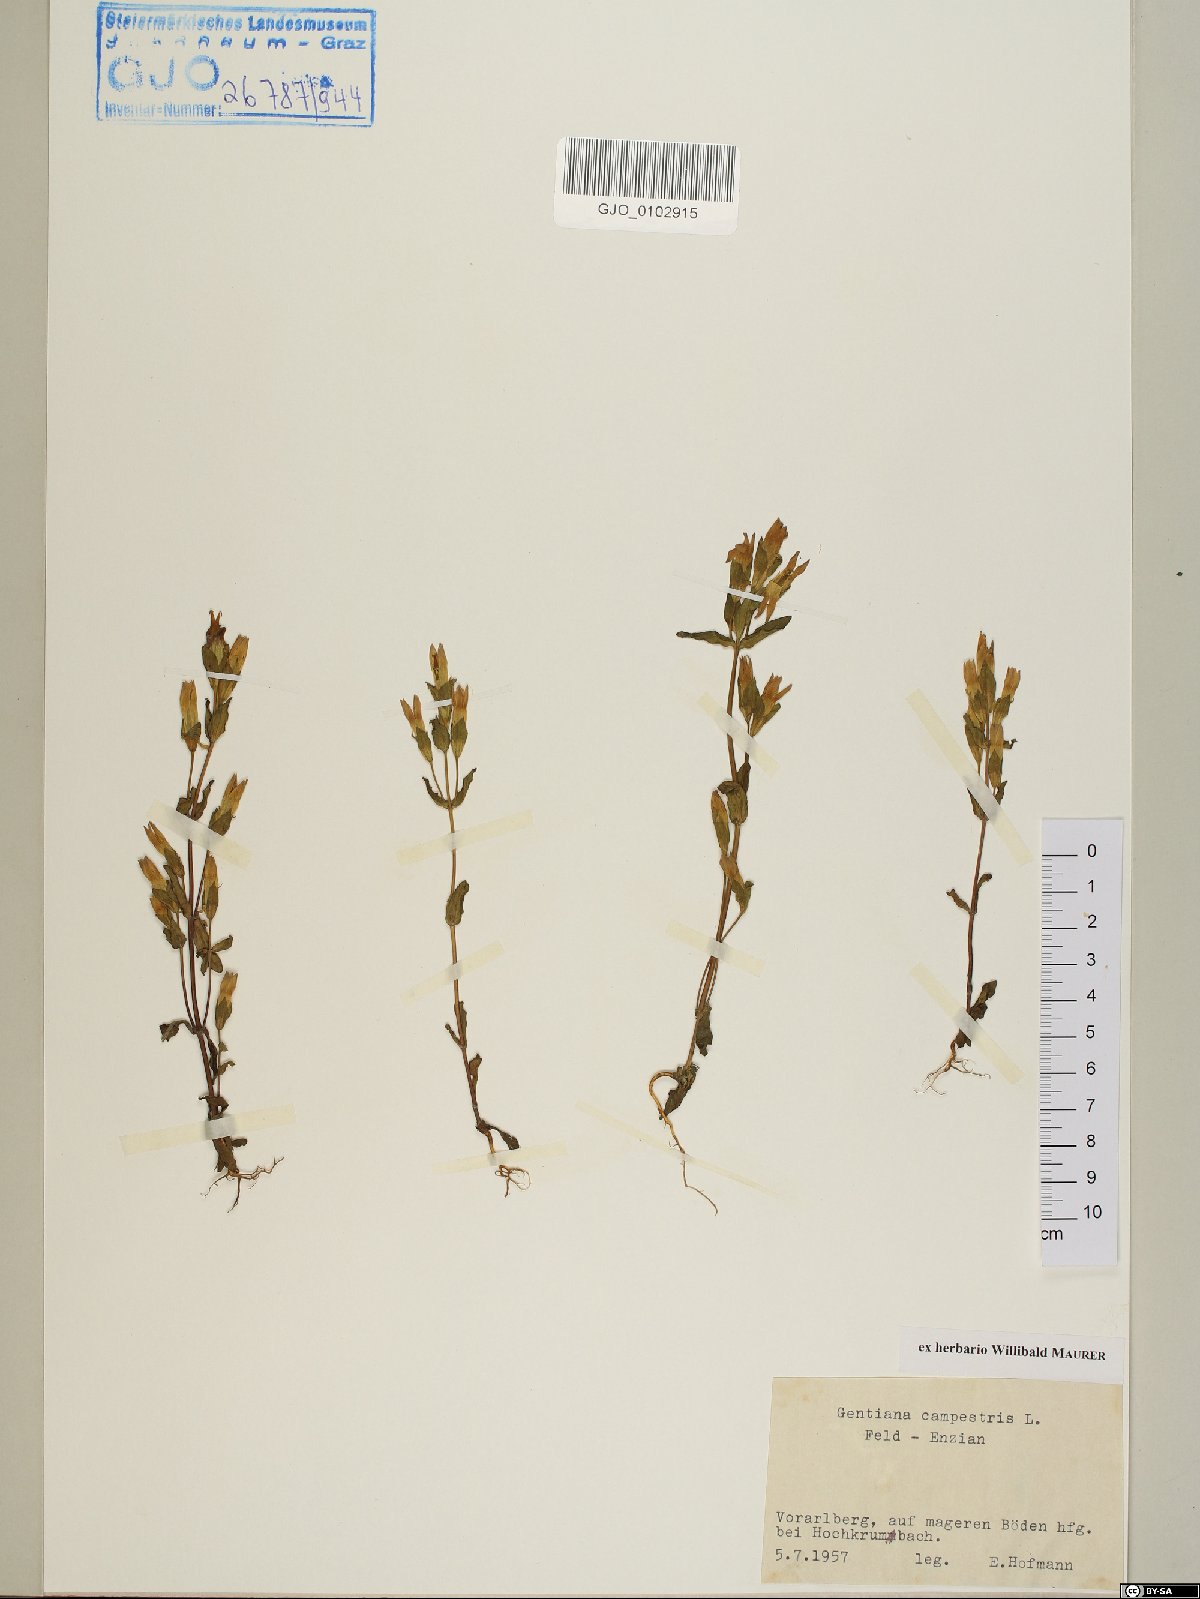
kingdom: Plantae
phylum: Tracheophyta
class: Magnoliopsida
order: Gentianales
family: Gentianaceae
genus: Gentianella
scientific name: Gentianella campestris
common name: Field gentian
